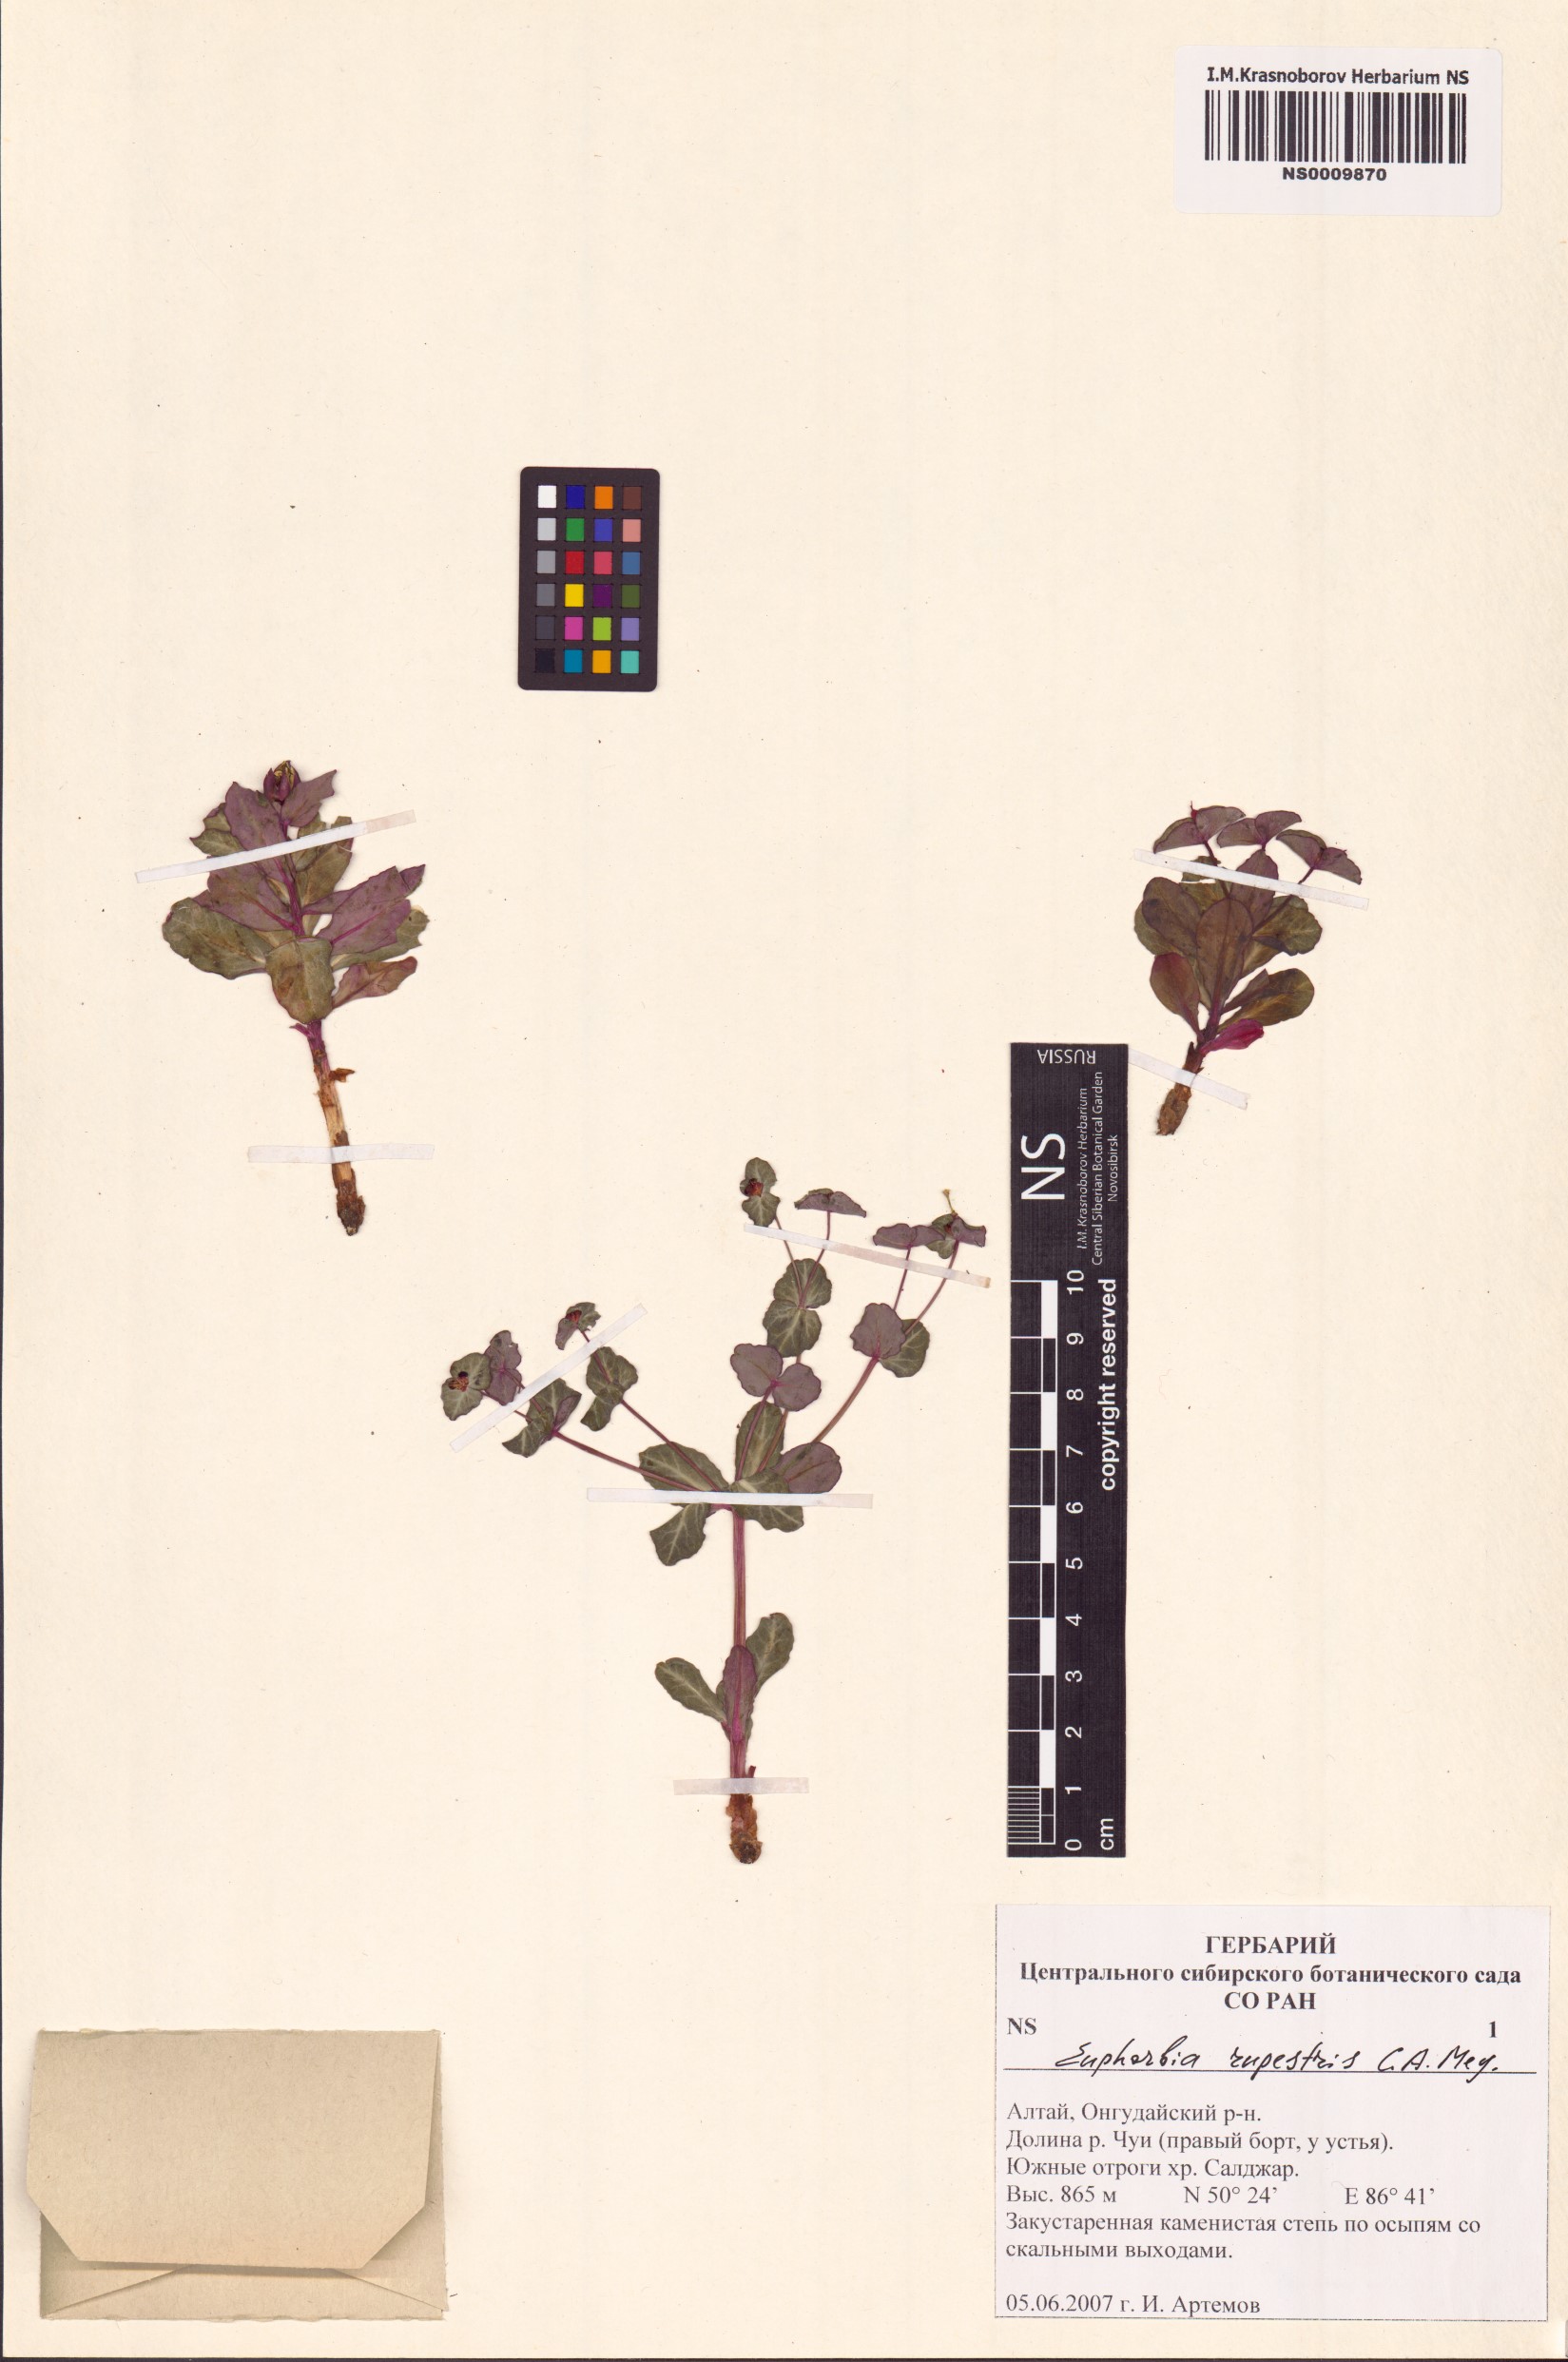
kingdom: Plantae
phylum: Tracheophyta
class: Magnoliopsida
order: Malpighiales
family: Euphorbiaceae
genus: Euphorbia
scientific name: Euphorbia rupestris
